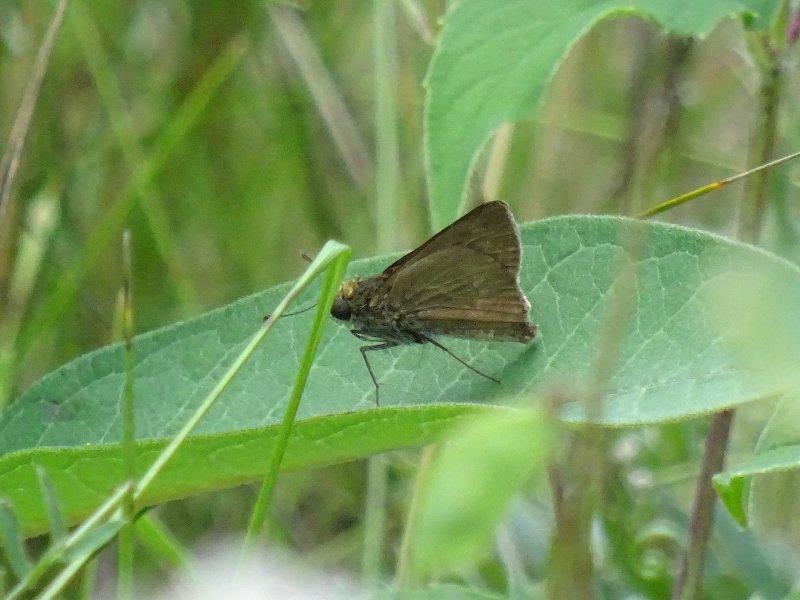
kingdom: Animalia
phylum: Arthropoda
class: Insecta
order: Lepidoptera
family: Hesperiidae
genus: Euphyes
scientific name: Euphyes vestris
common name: Dun Skipper
